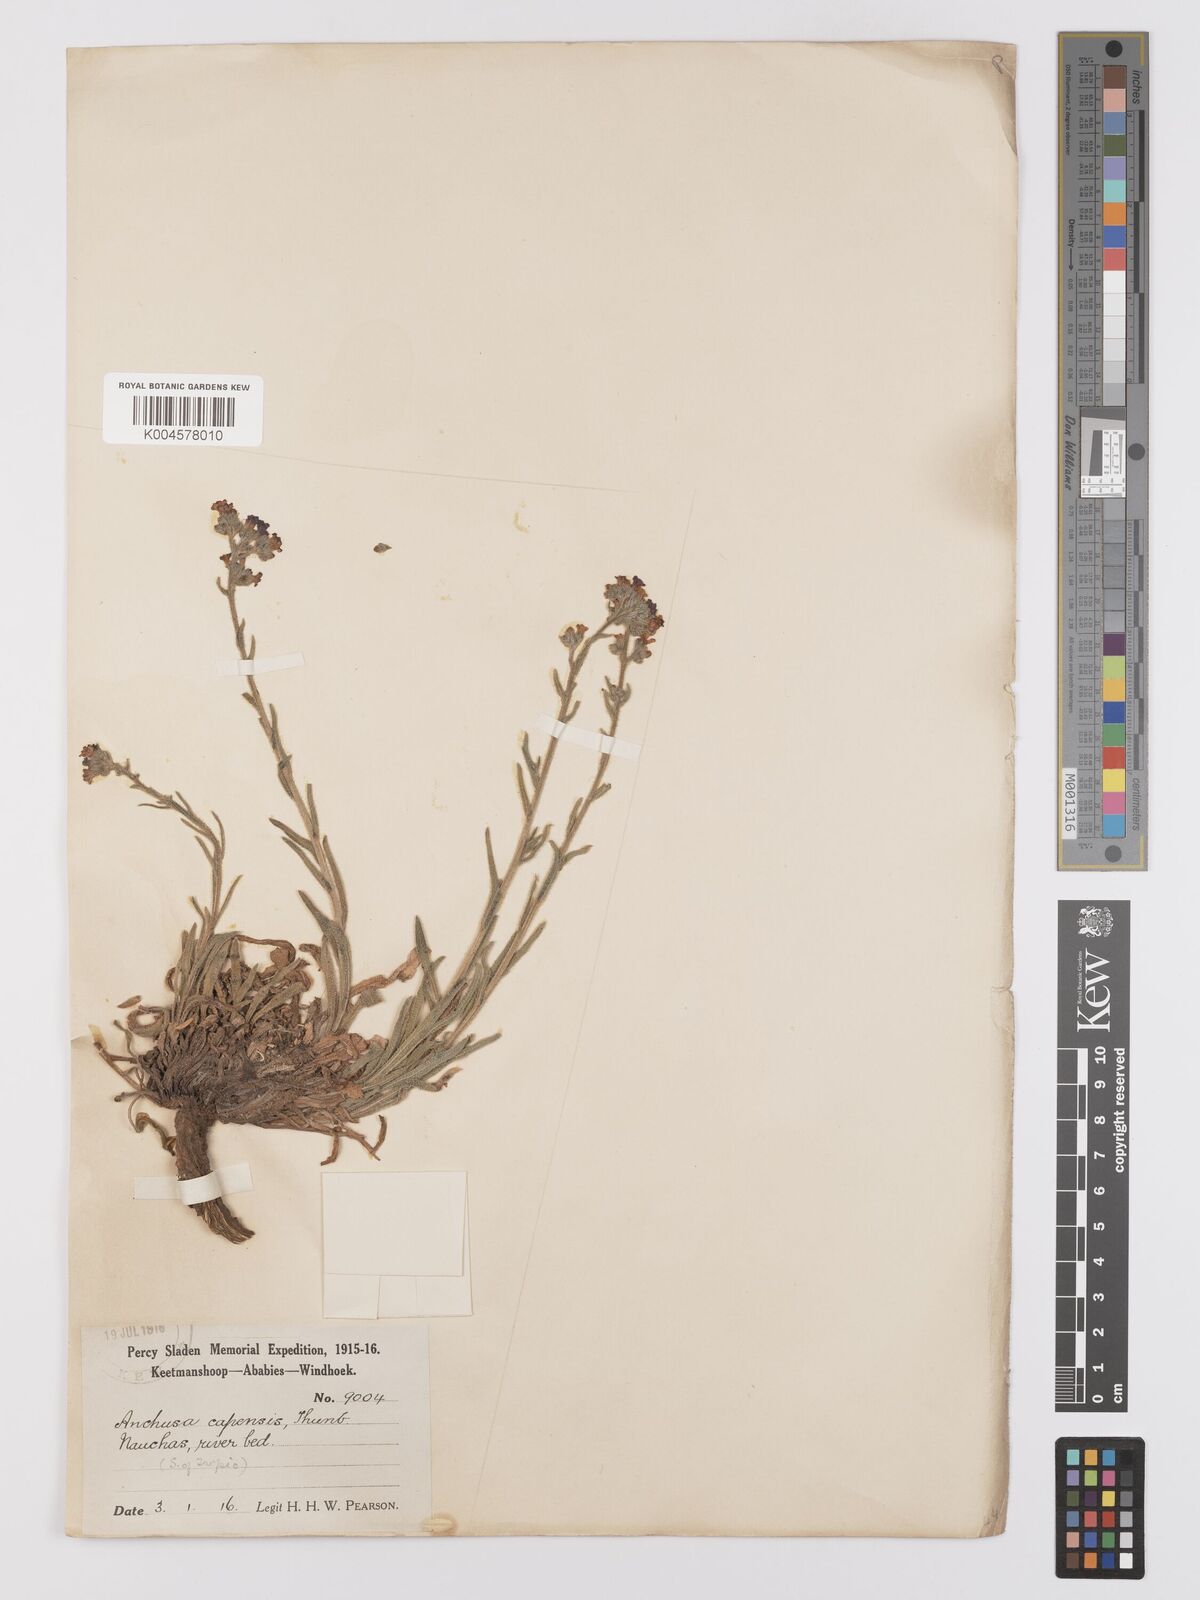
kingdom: Plantae
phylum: Tracheophyta
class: Magnoliopsida
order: Boraginales
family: Boraginaceae
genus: Anchusa
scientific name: Anchusa capensis
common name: Cape bugloss
